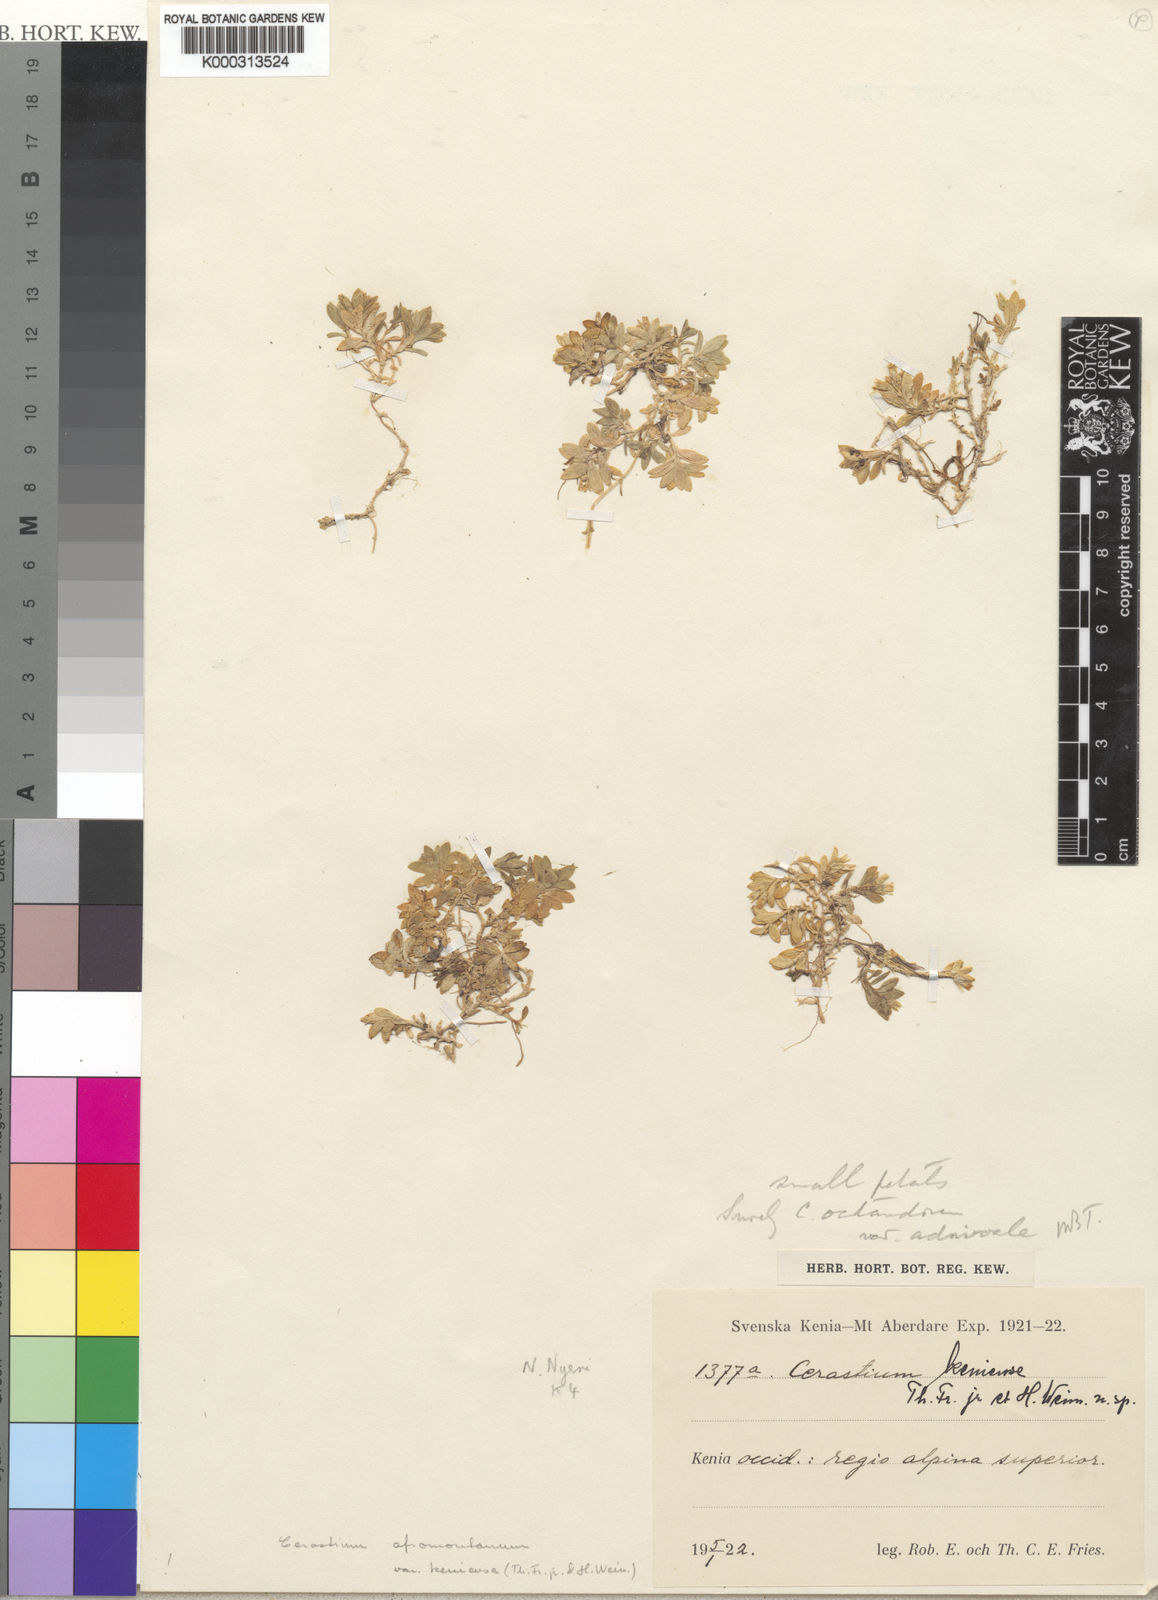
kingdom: Plantae
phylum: Tracheophyta
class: Magnoliopsida
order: Caryophyllales
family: Caryophyllaceae
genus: Cerastium
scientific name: Cerastium afromontanum
